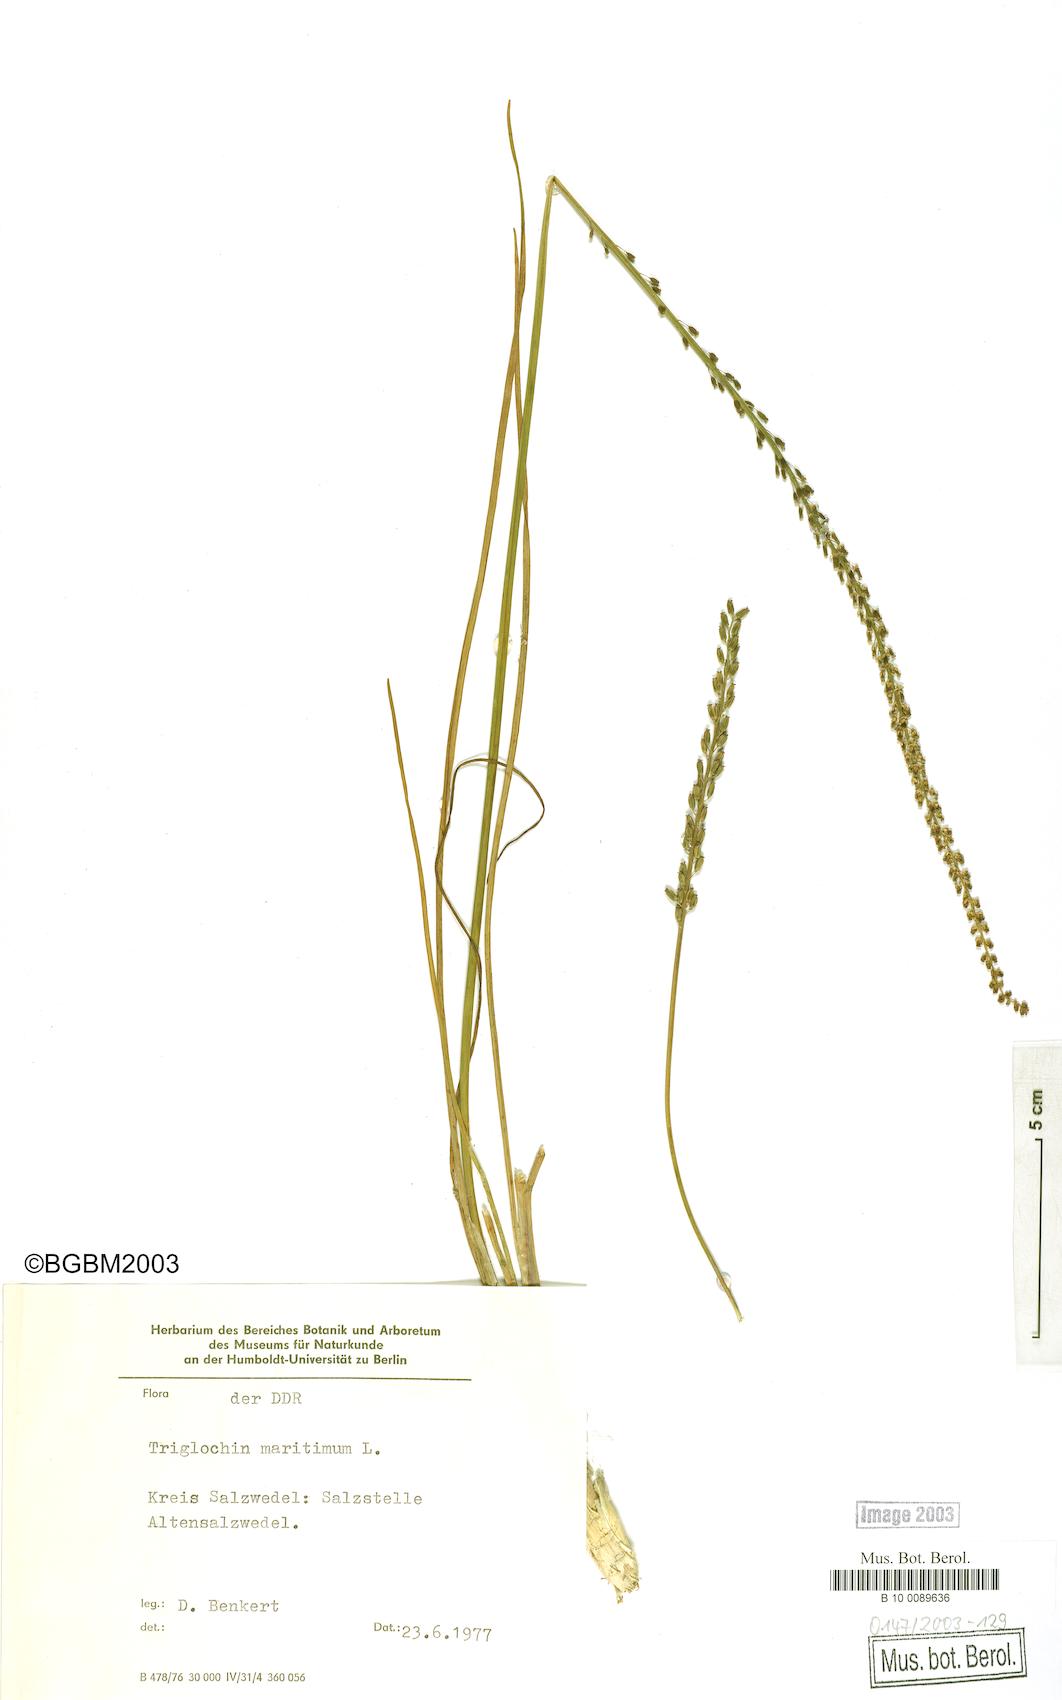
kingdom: Plantae
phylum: Tracheophyta
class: Liliopsida
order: Alismatales
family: Juncaginaceae
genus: Triglochin
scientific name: Triglochin maritima
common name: Sea arrowgrass
